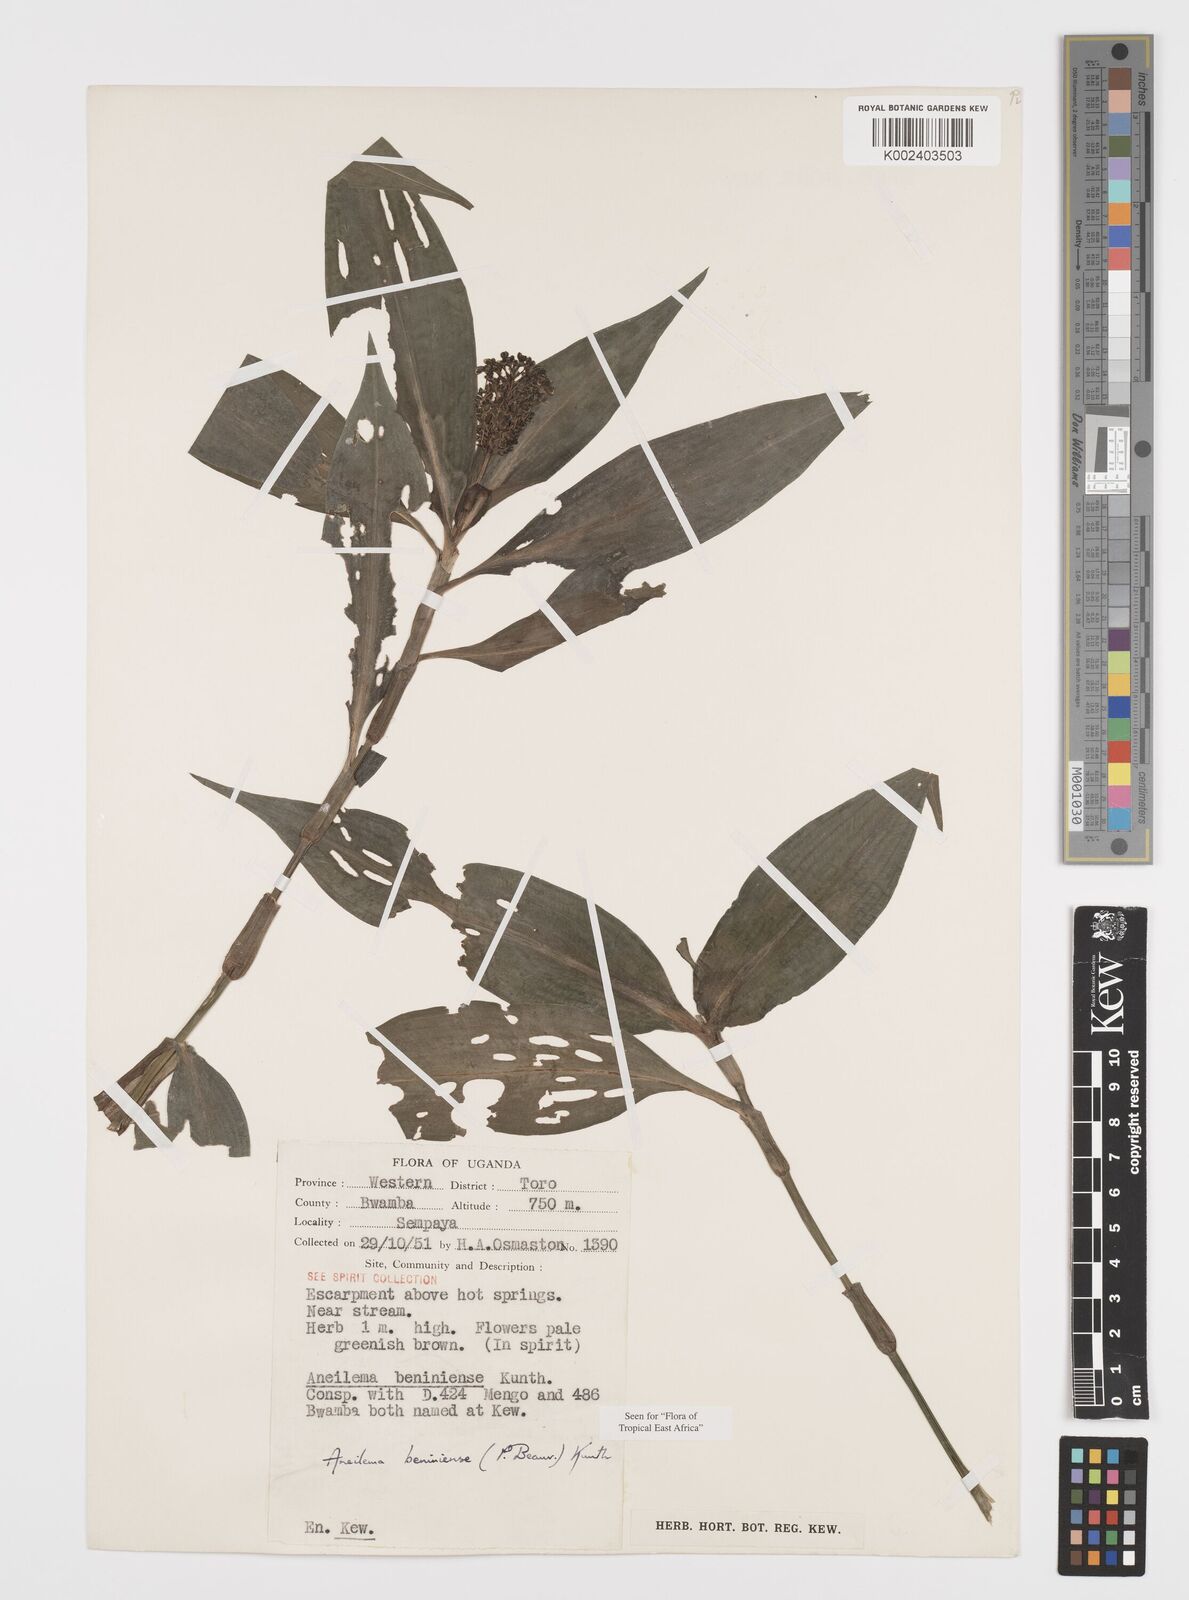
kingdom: Plantae
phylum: Tracheophyta
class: Liliopsida
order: Commelinales
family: Commelinaceae
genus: Aneilema
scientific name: Aneilema beniniense
